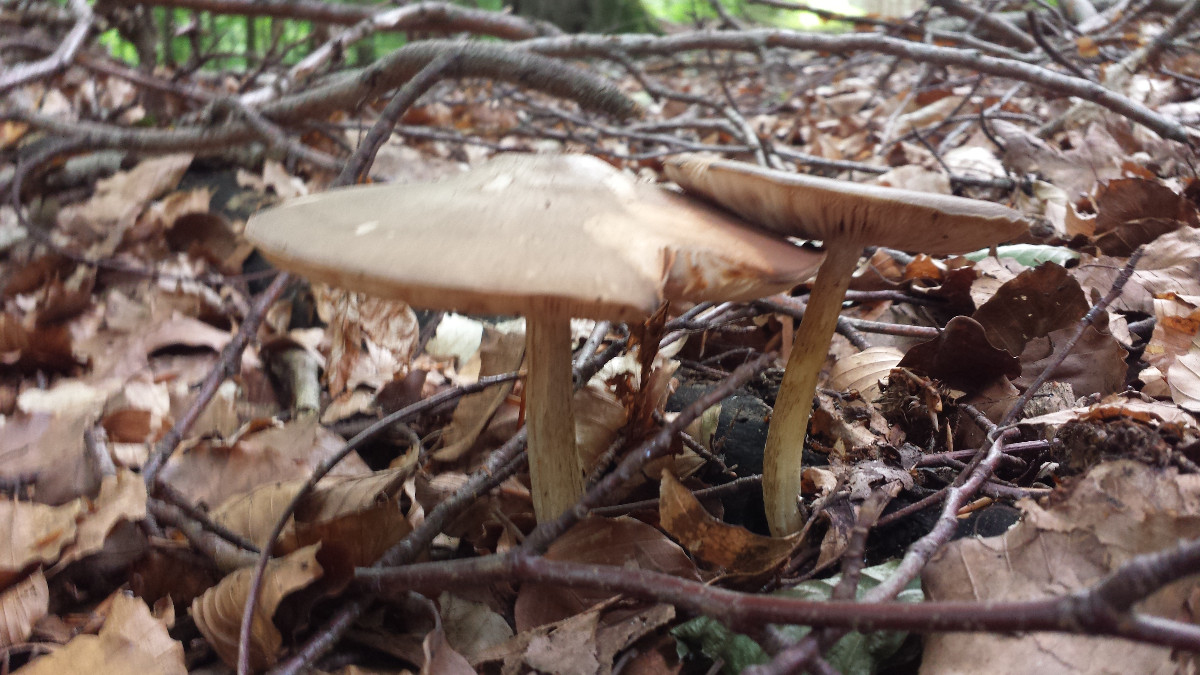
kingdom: Fungi
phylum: Basidiomycota
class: Agaricomycetes
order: Agaricales
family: Pluteaceae
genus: Pluteus
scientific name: Pluteus cervinus
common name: sodfarvet skærmhat
